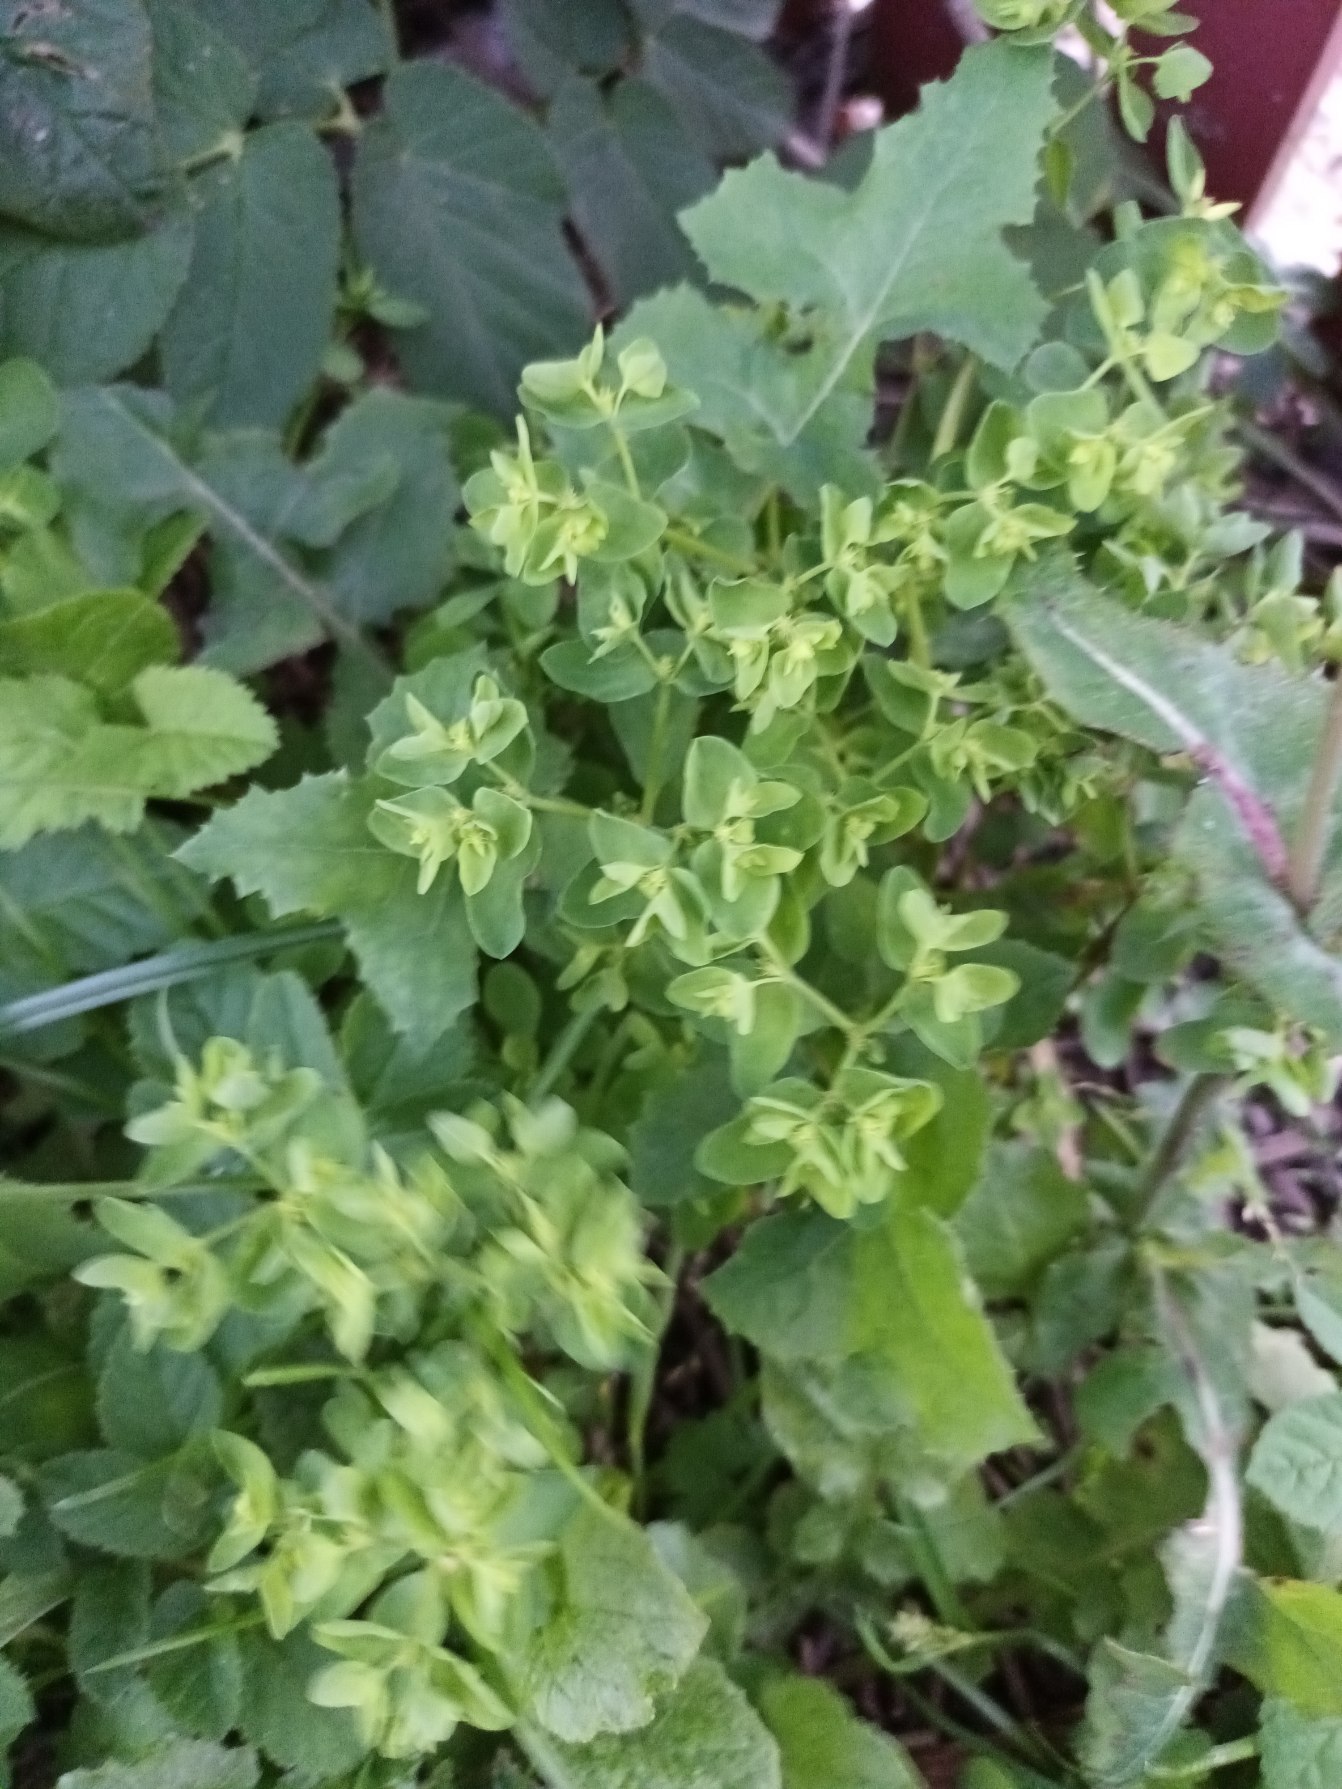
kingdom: Plantae
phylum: Tracheophyta
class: Magnoliopsida
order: Malpighiales
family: Euphorbiaceae
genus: Euphorbia
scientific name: Euphorbia peplus
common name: Gaffel-vortemælk
